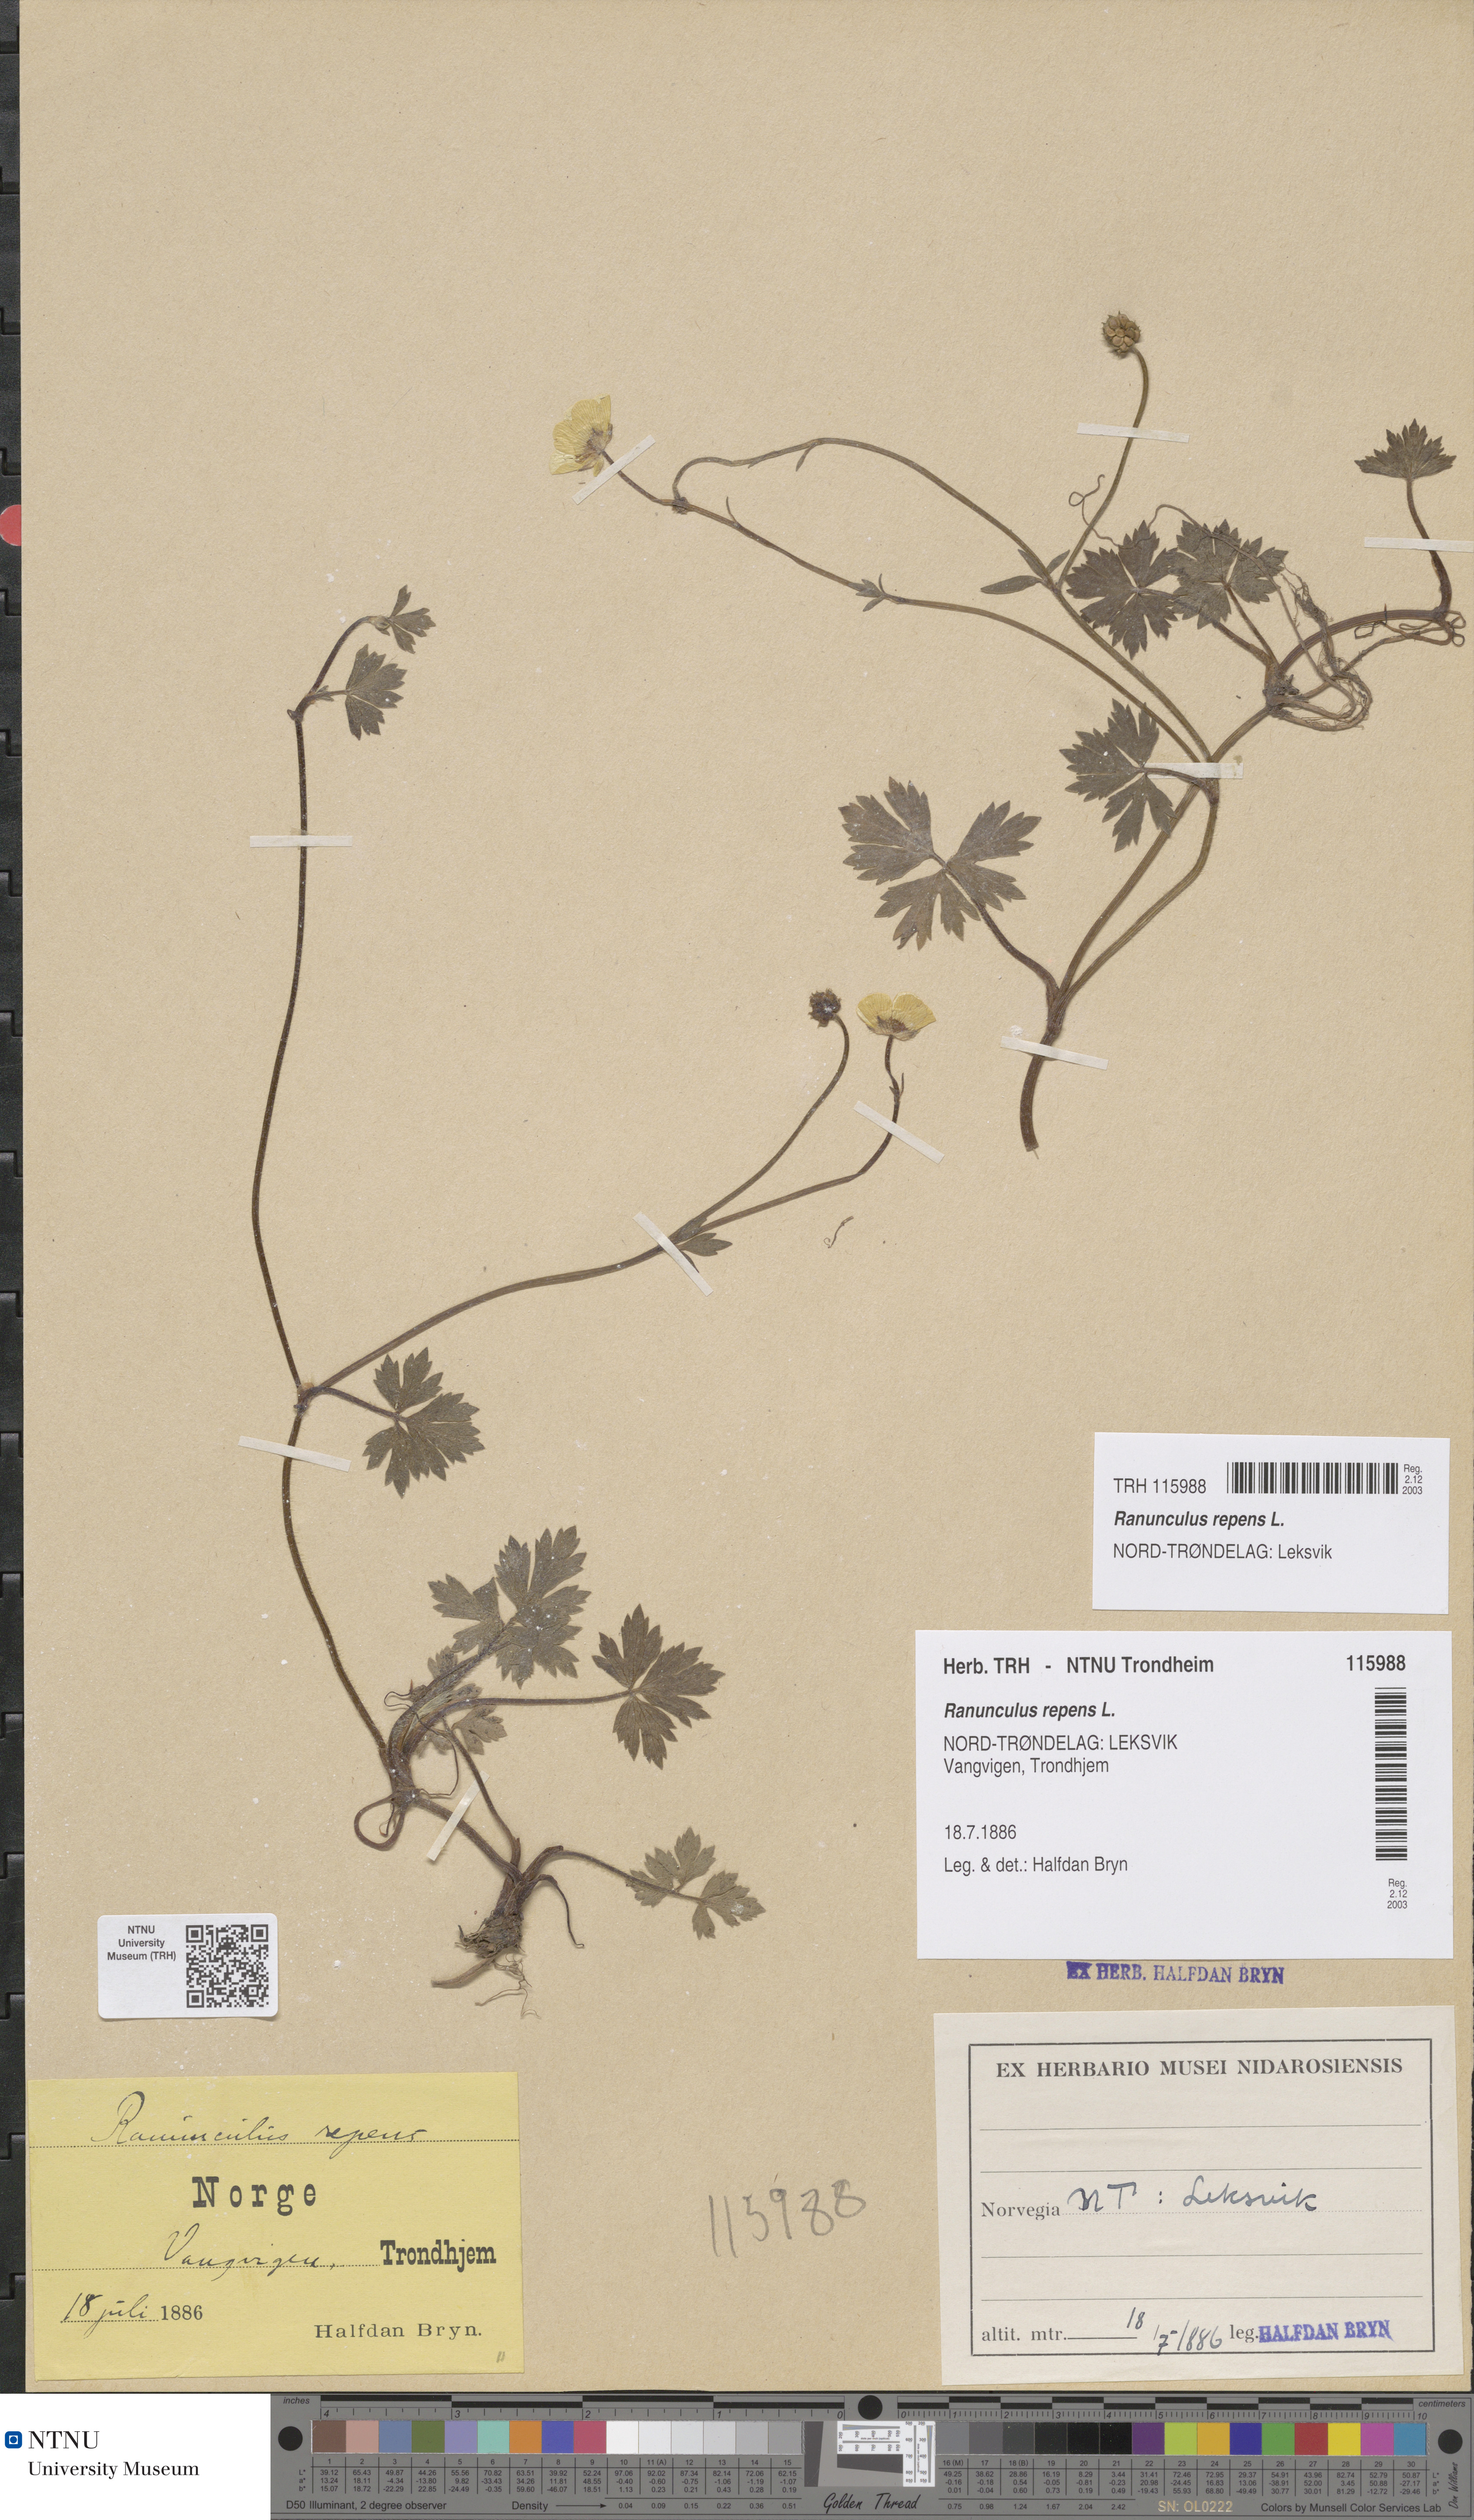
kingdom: Plantae
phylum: Tracheophyta
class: Magnoliopsida
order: Ranunculales
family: Ranunculaceae
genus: Ranunculus
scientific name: Ranunculus repens
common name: Creeping buttercup
